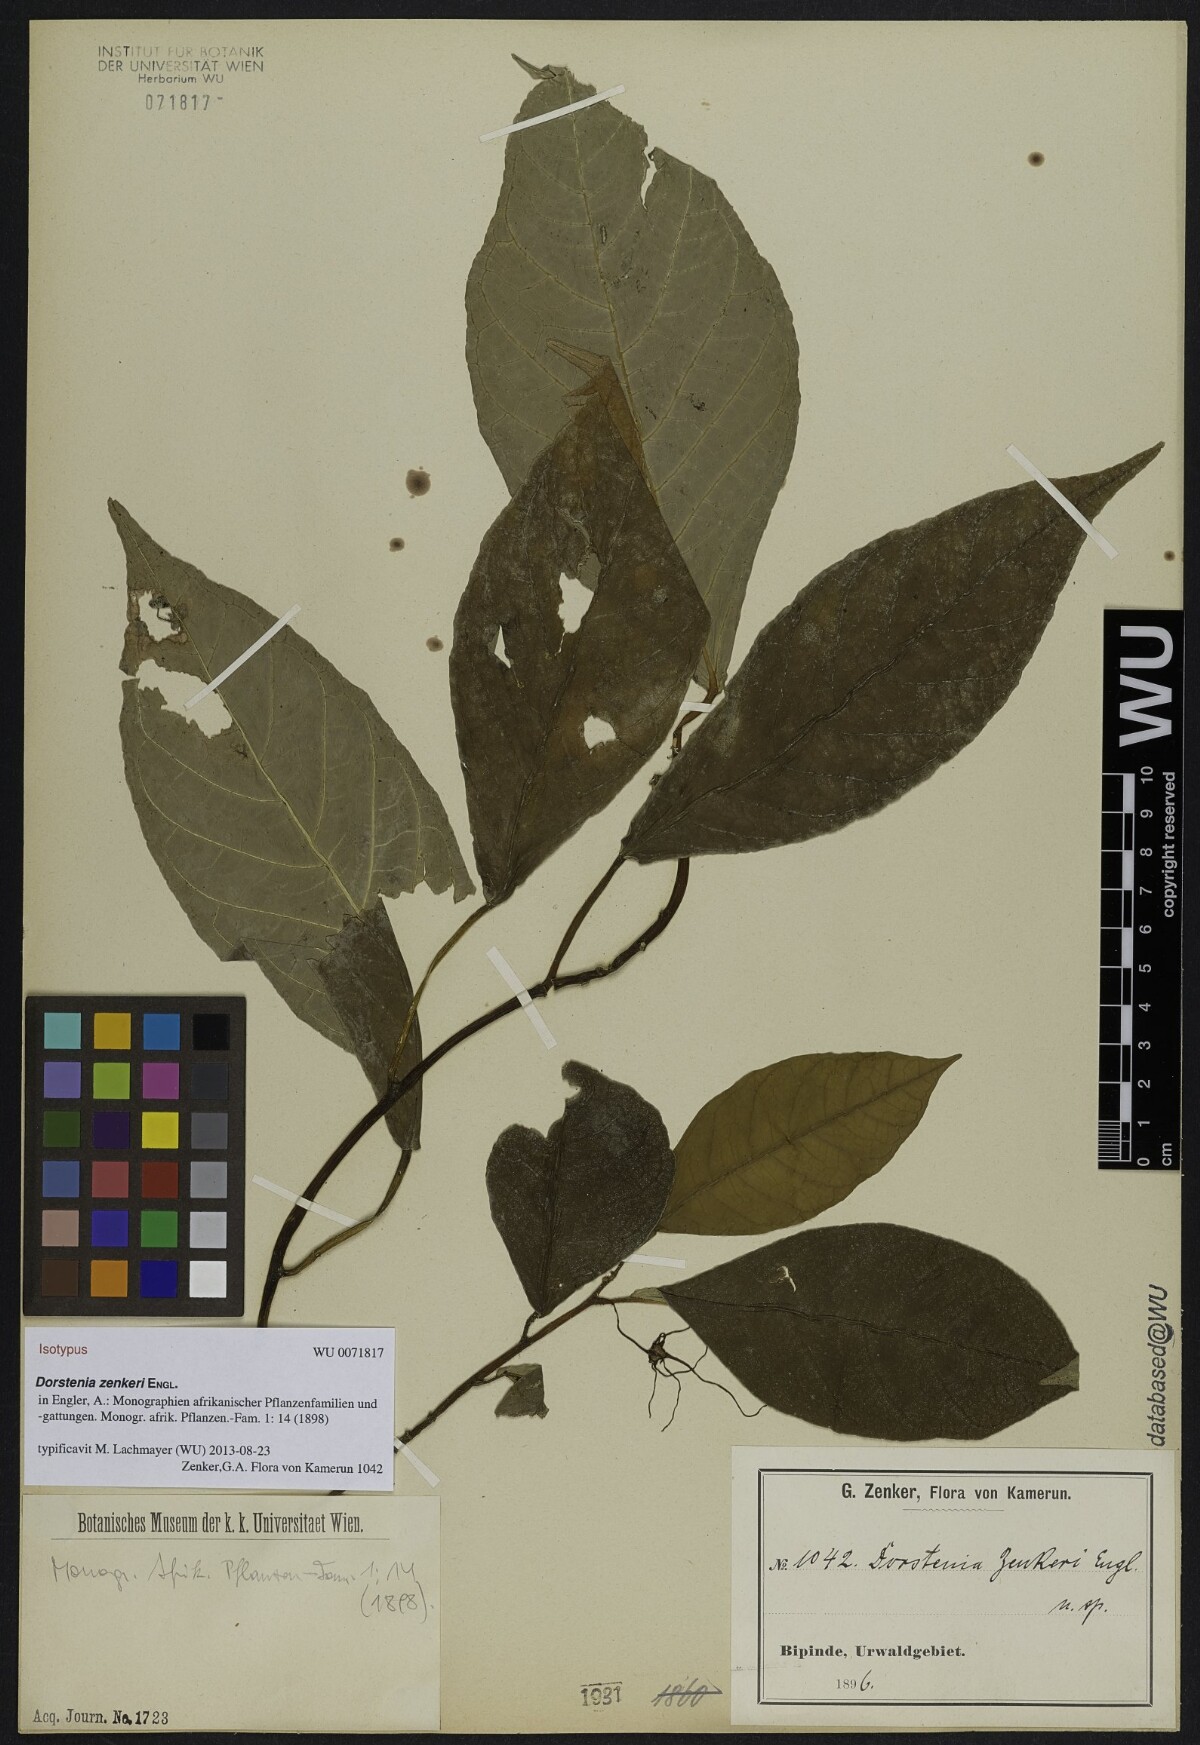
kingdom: Plantae
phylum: Tracheophyta
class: Magnoliopsida
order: Rosales
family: Moraceae
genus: Dorstenia
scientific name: Dorstenia zenkeri
